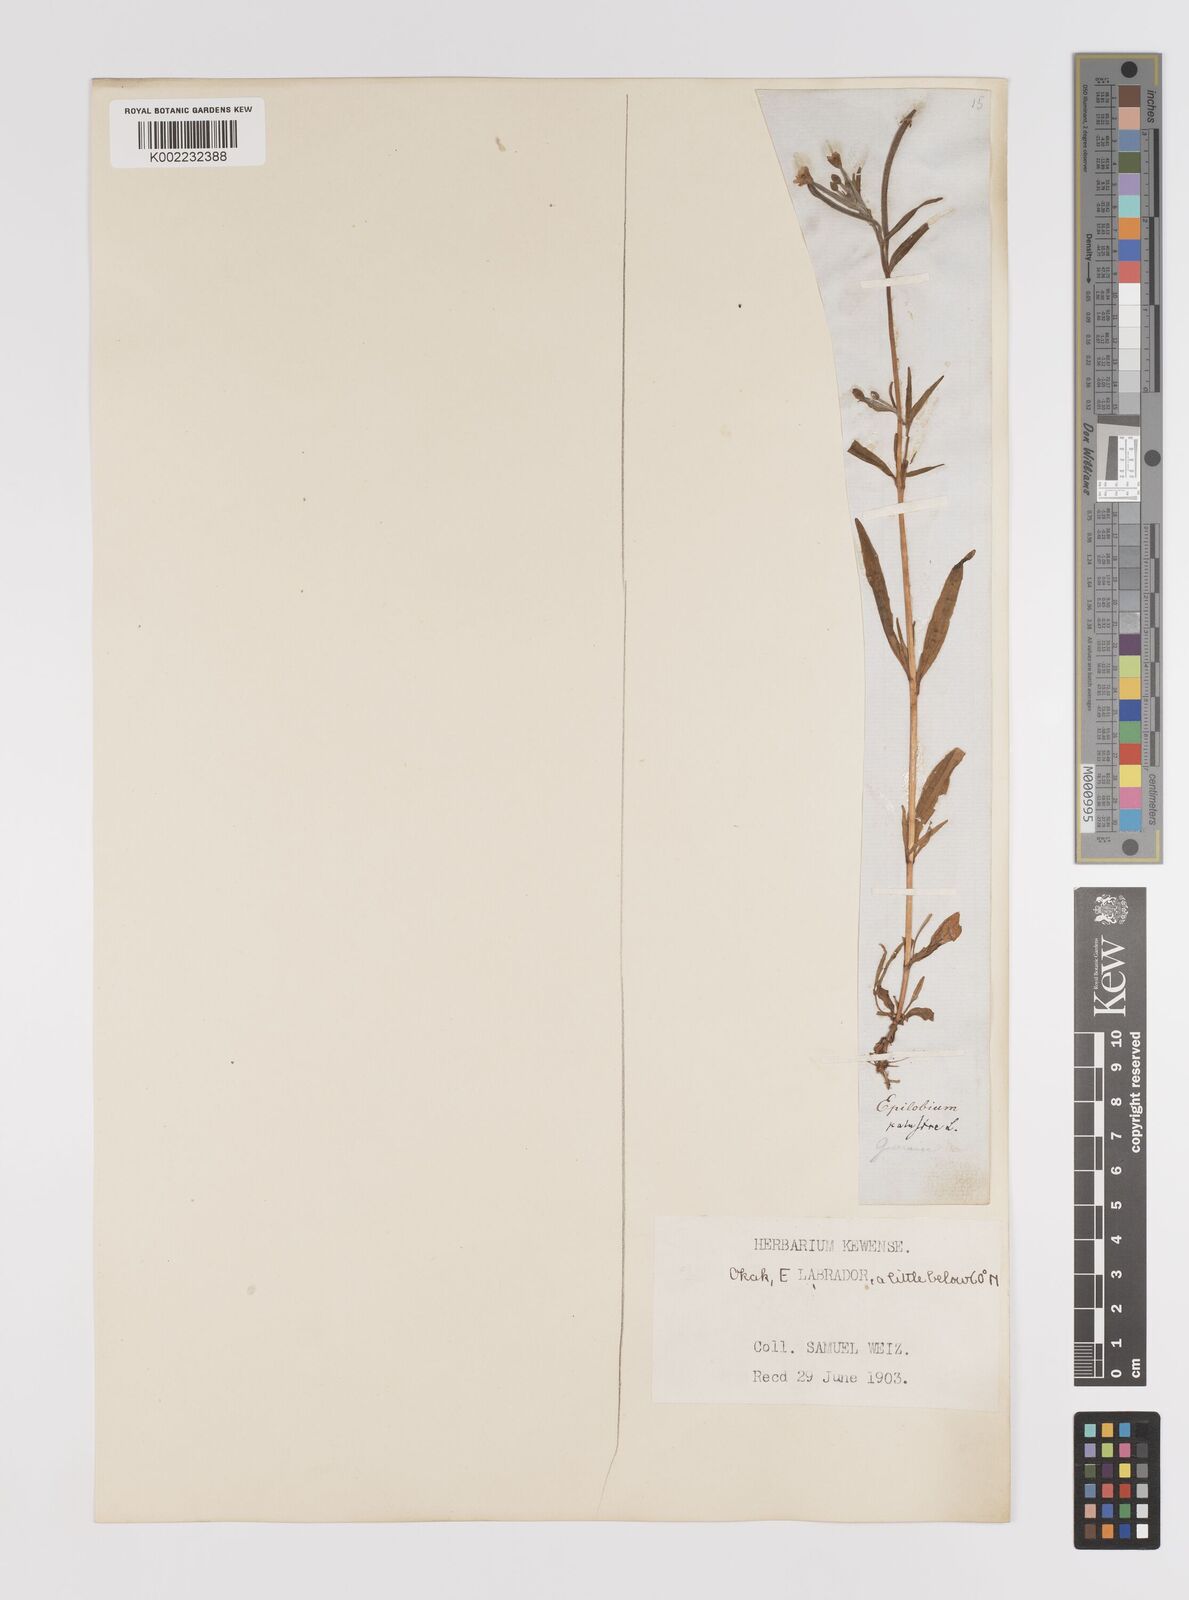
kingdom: Plantae
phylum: Tracheophyta
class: Magnoliopsida
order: Myrtales
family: Onagraceae
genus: Epilobium
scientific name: Epilobium palustre
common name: Marsh willowherb
